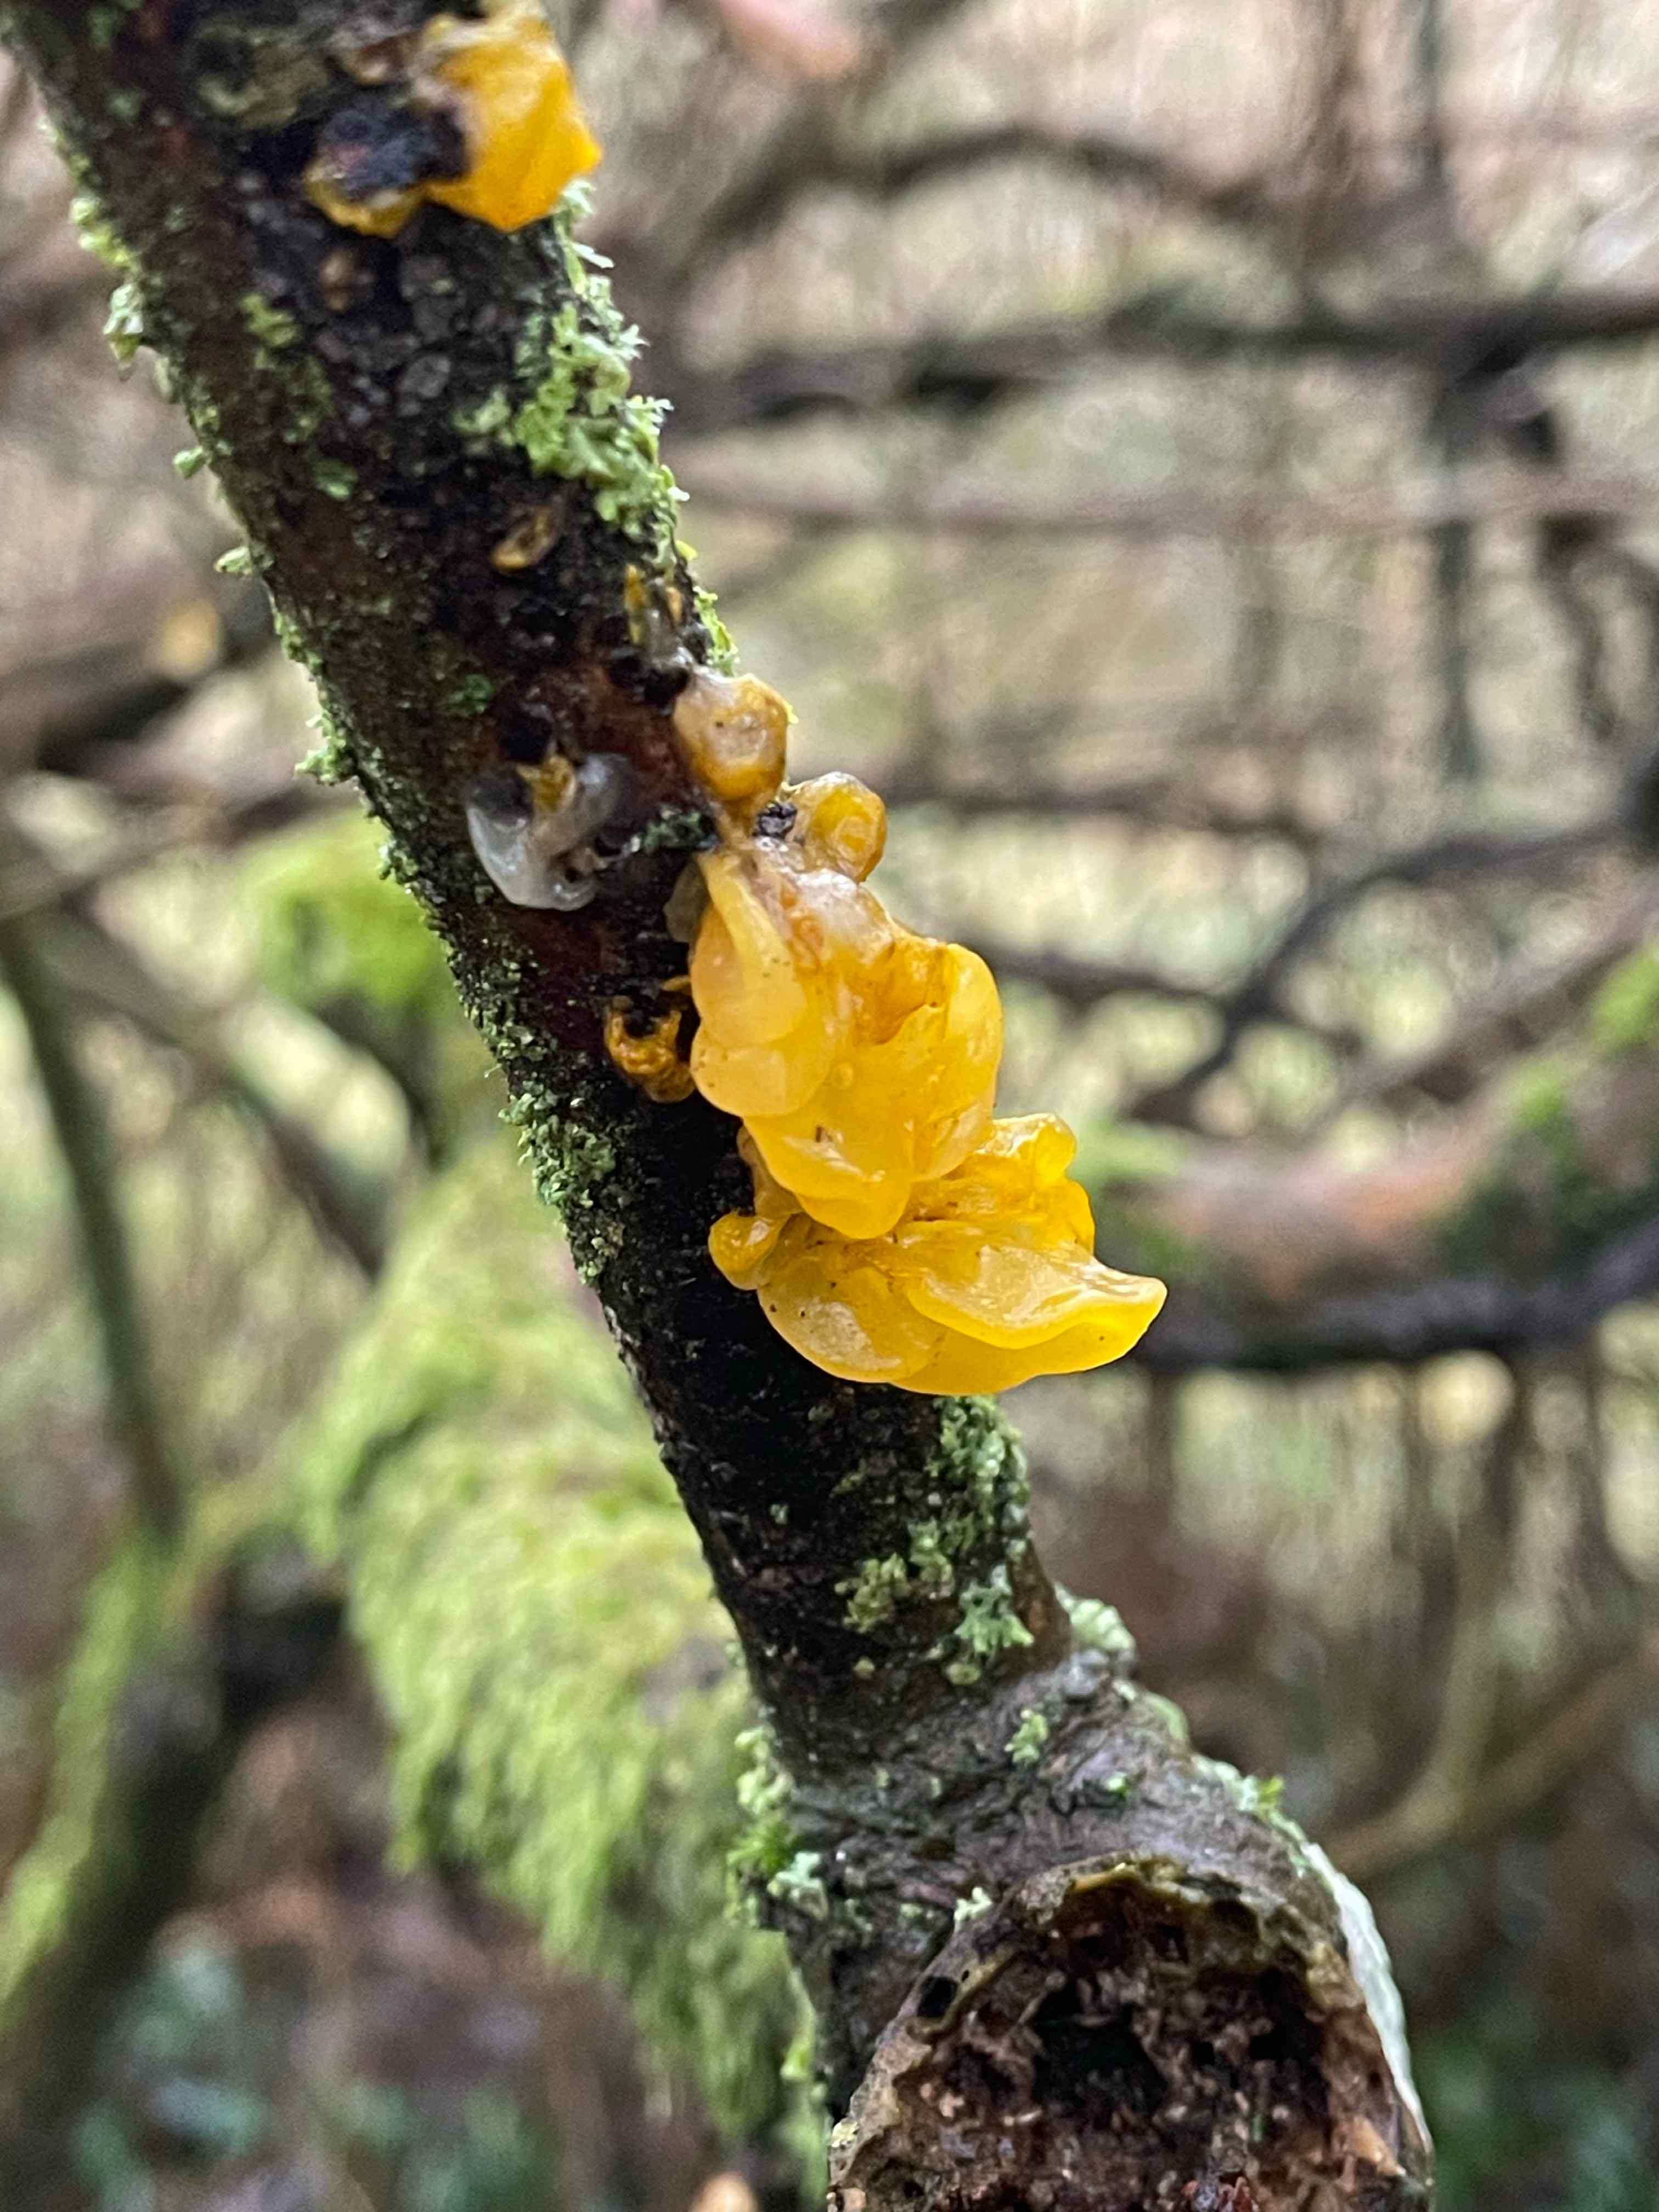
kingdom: Fungi
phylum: Basidiomycota
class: Tremellomycetes
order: Tremellales
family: Tremellaceae
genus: Tremella
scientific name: Tremella mesenterica
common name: gul bævresvamp
